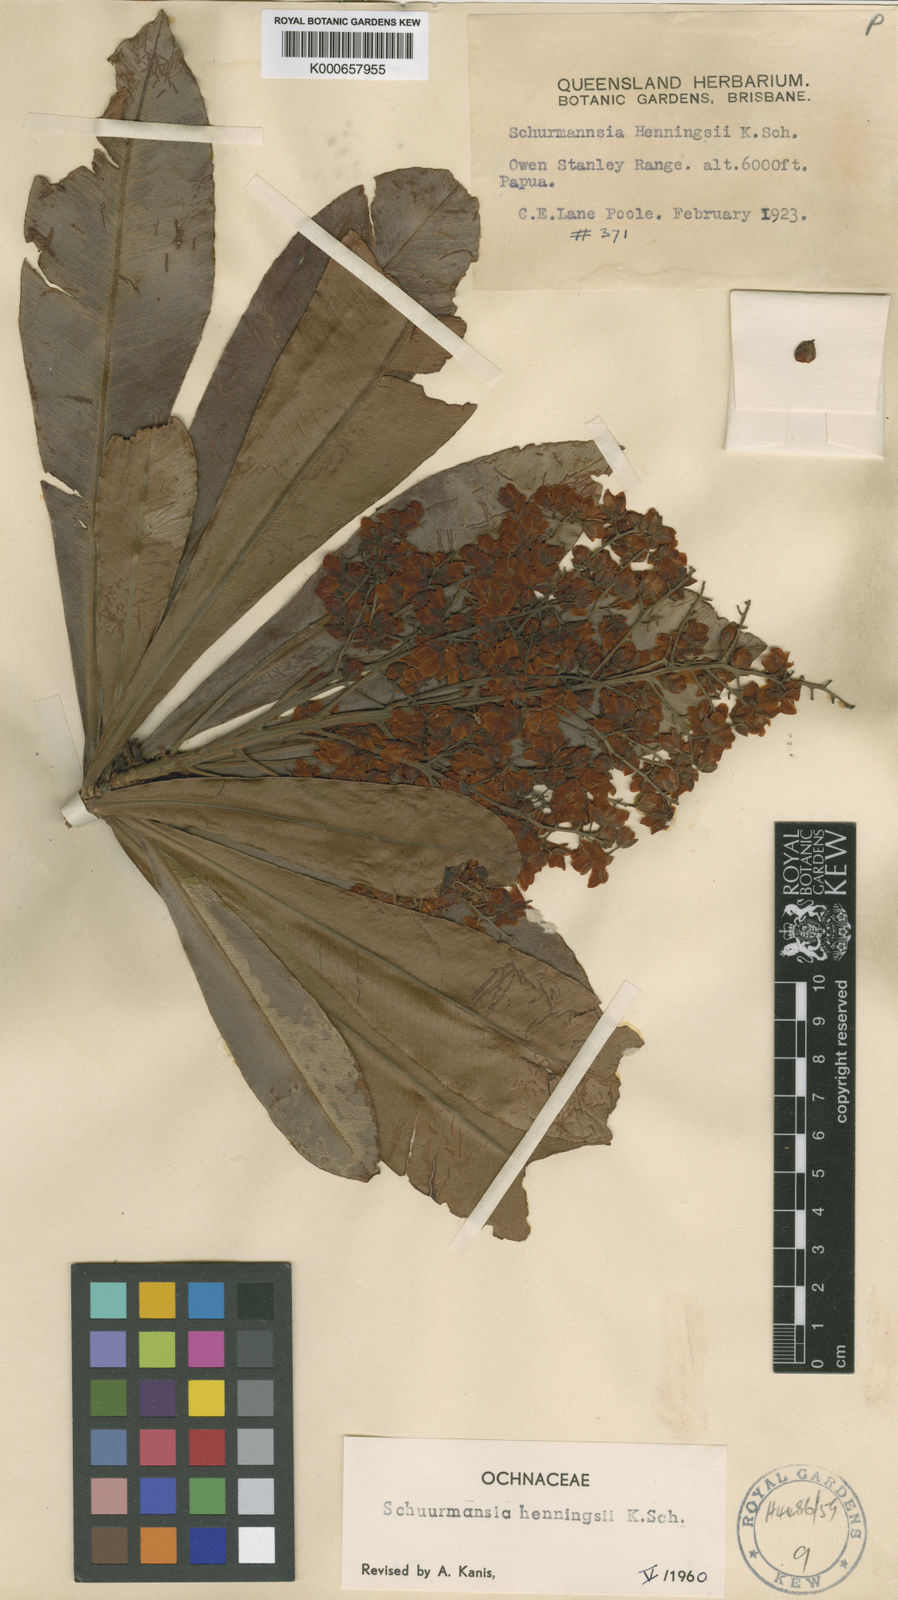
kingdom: Plantae
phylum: Tracheophyta
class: Magnoliopsida
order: Malpighiales
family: Ochnaceae
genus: Schuurmansia
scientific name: Schuurmansia henningsii
